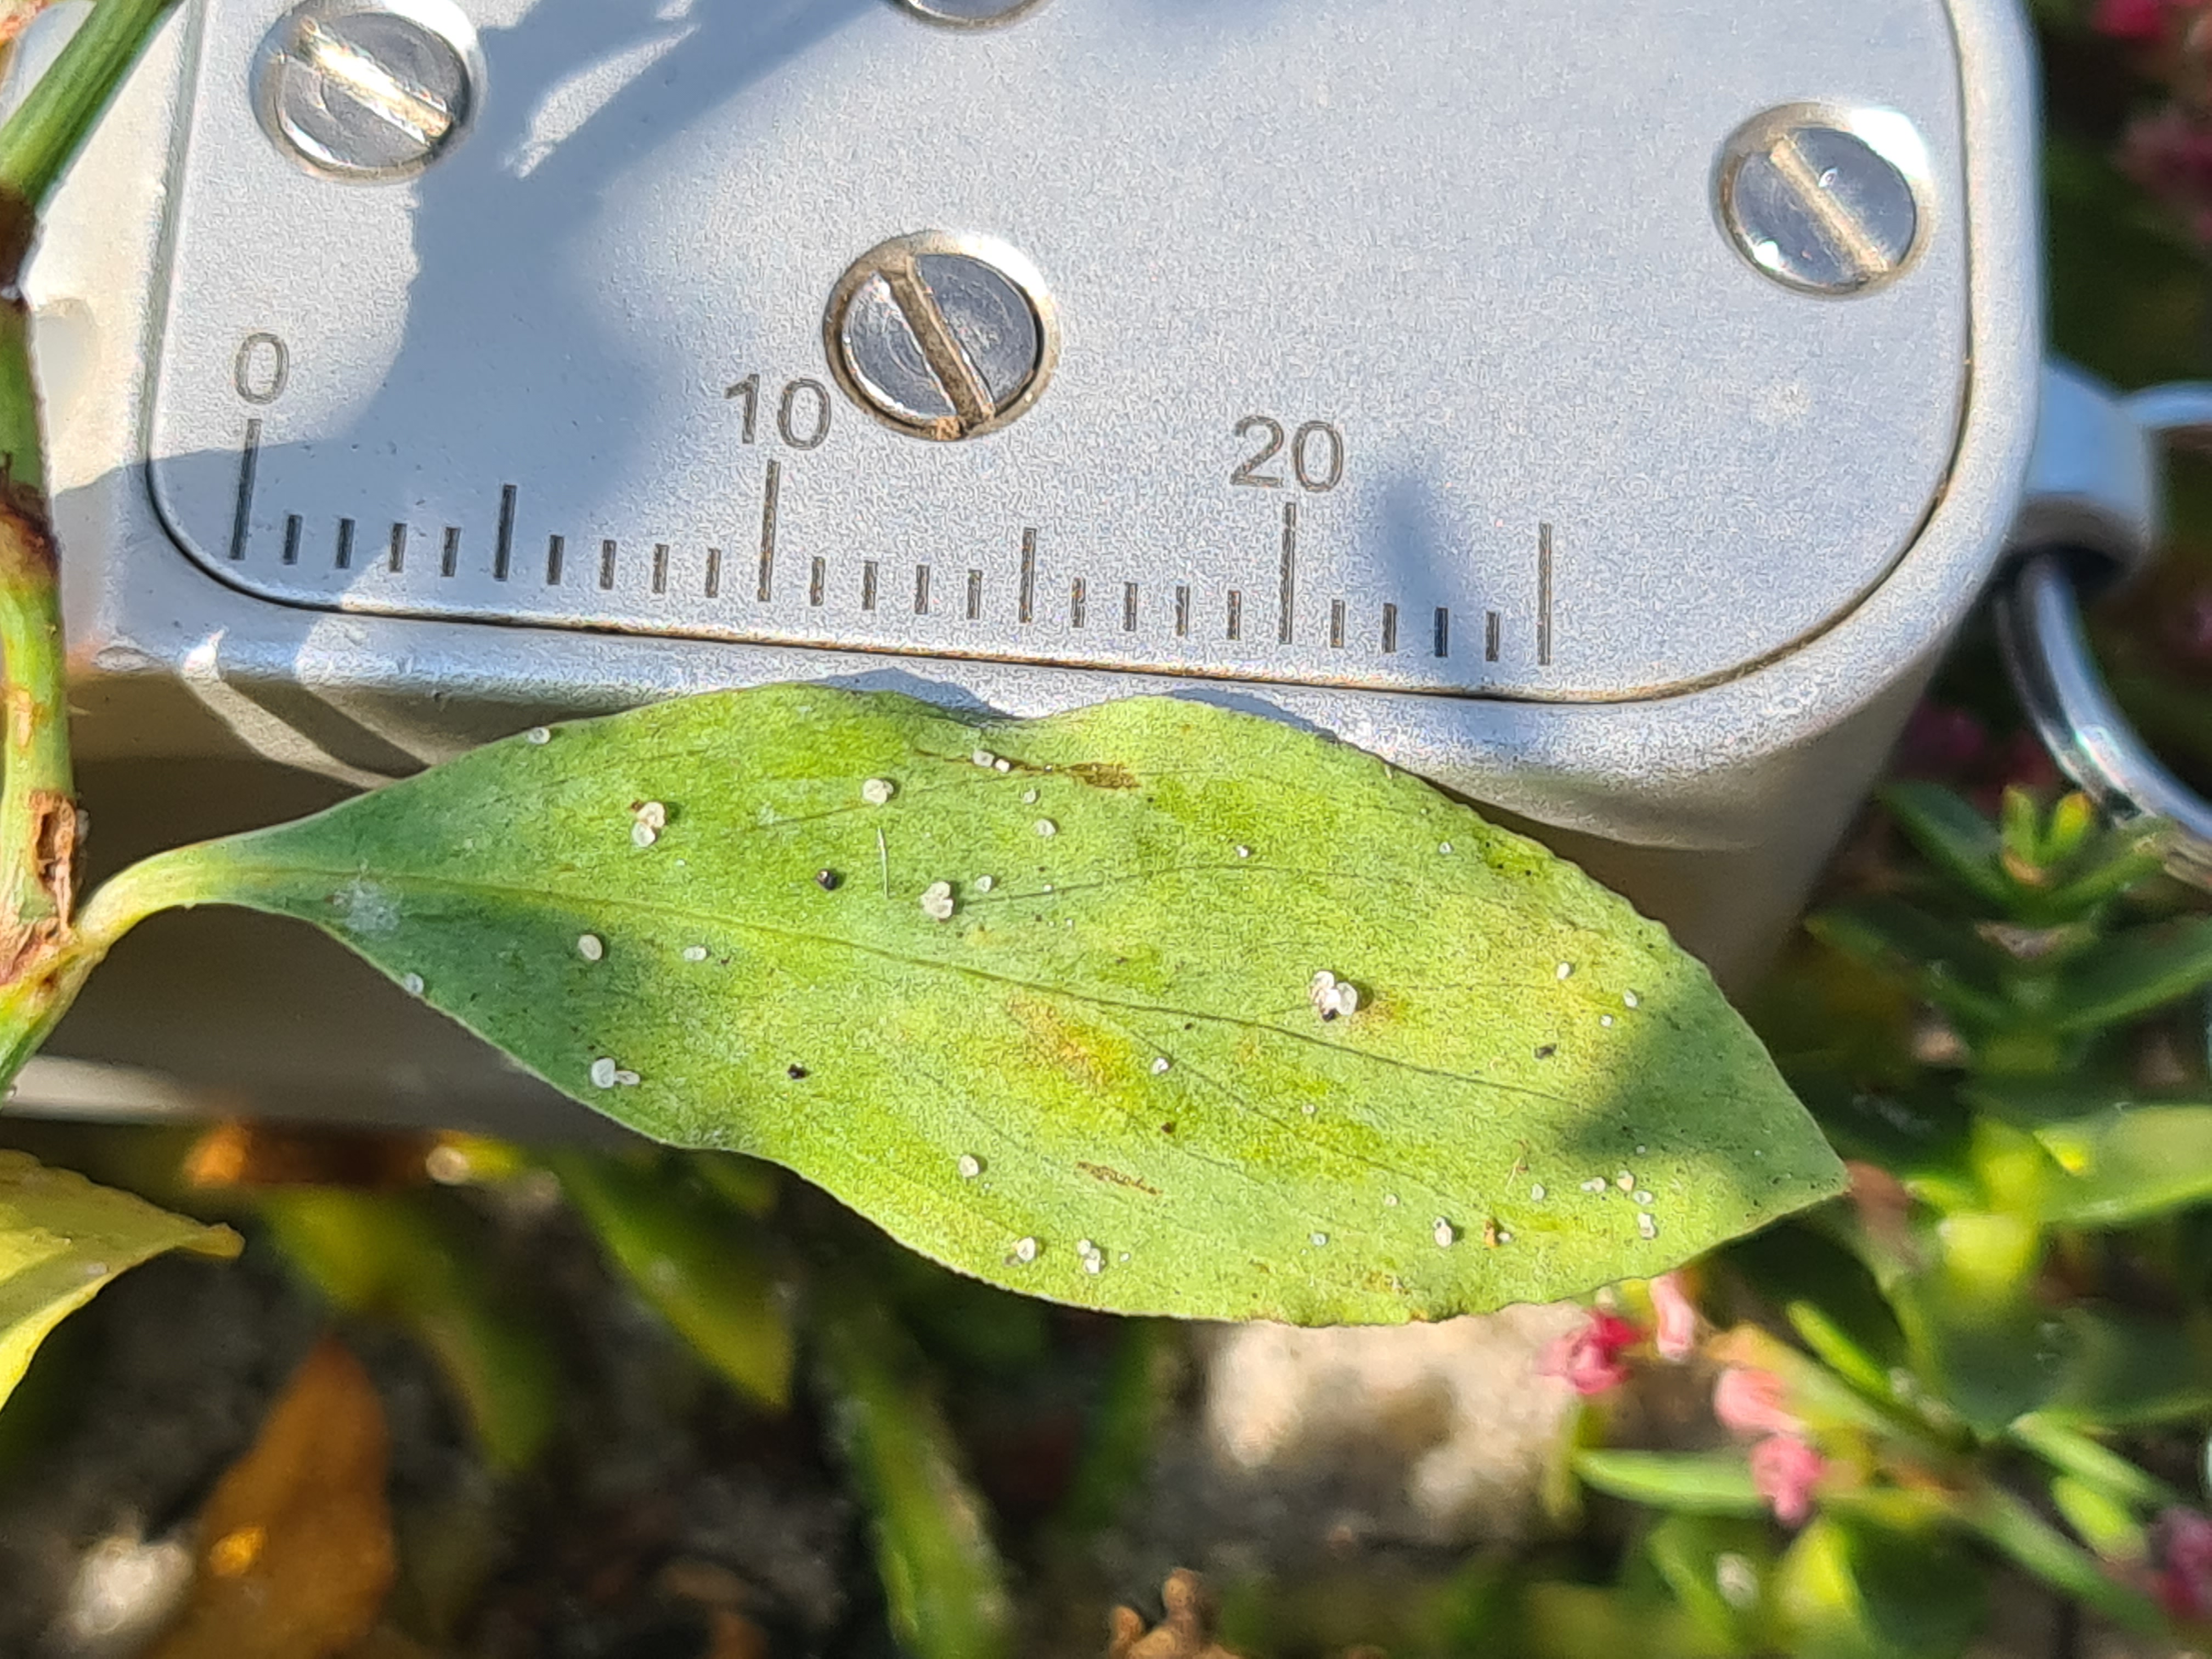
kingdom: Plantae
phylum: Tracheophyta
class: Magnoliopsida
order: Caryophyllales
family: Polygonaceae
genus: Polygonum
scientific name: Polygonum aviculare
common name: Vej-pileurt
